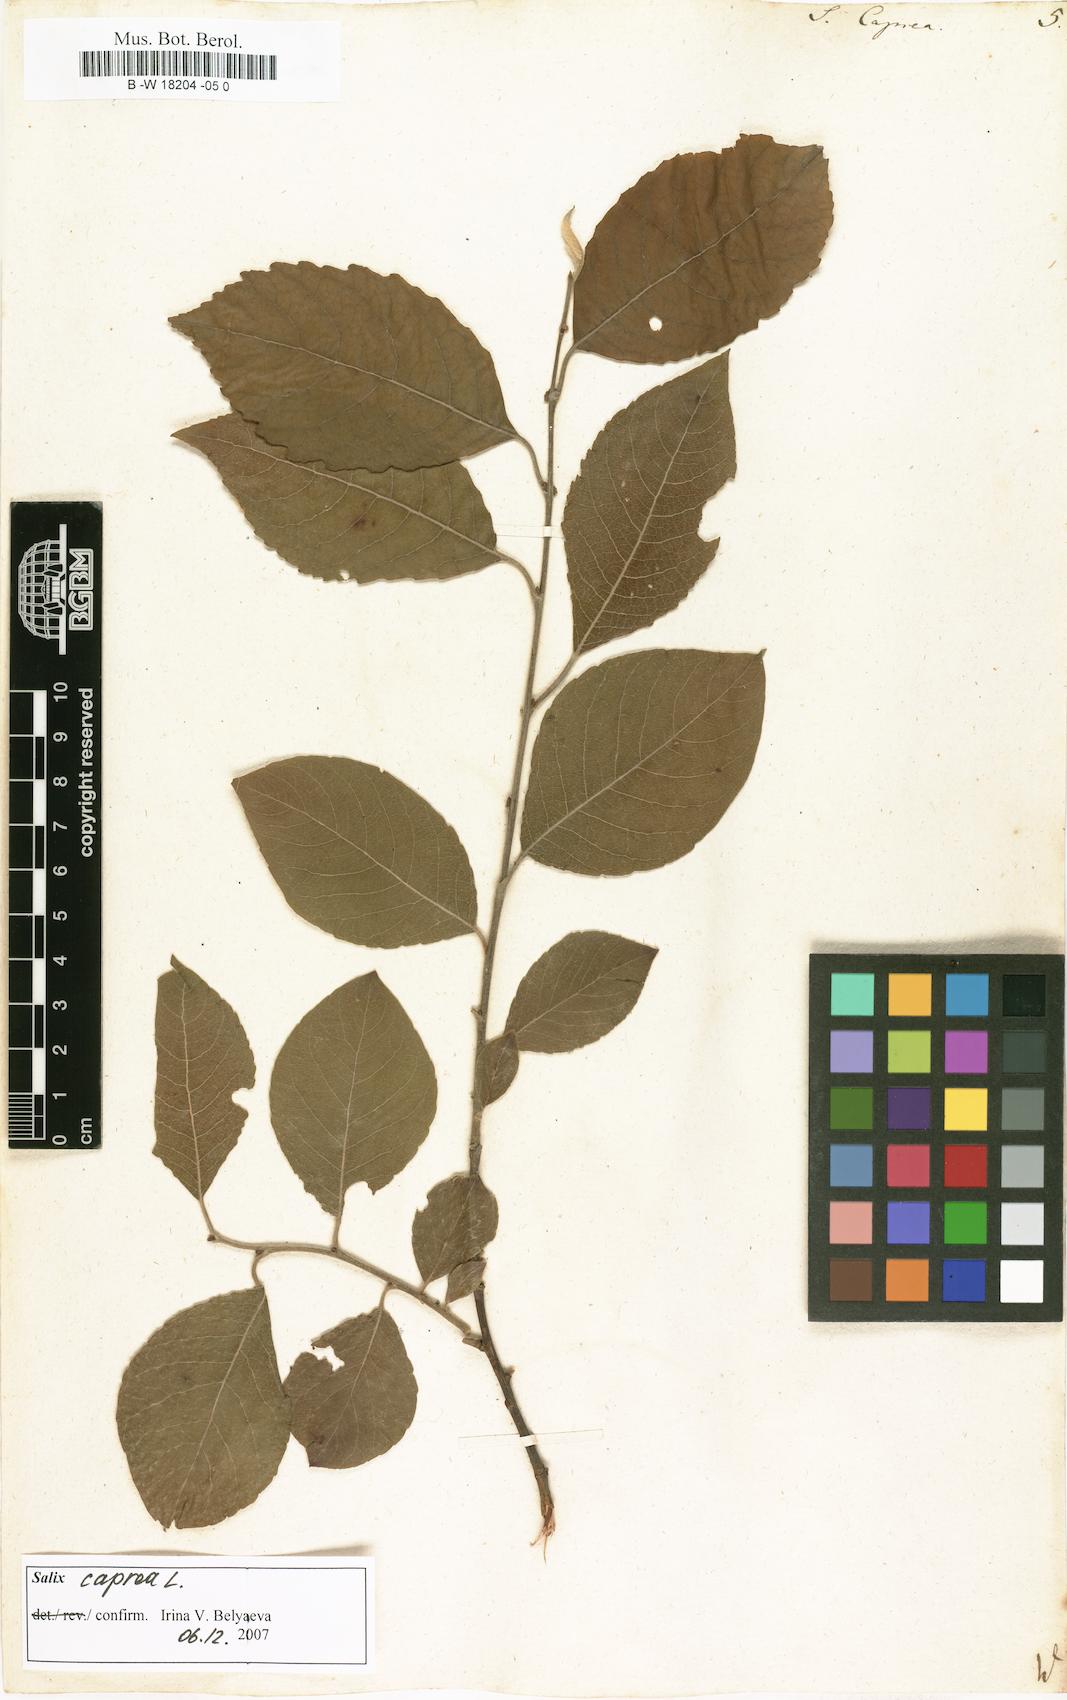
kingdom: Plantae
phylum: Tracheophyta
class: Magnoliopsida
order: Malpighiales
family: Salicaceae
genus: Salix
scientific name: Salix caprea
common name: Goat willow
